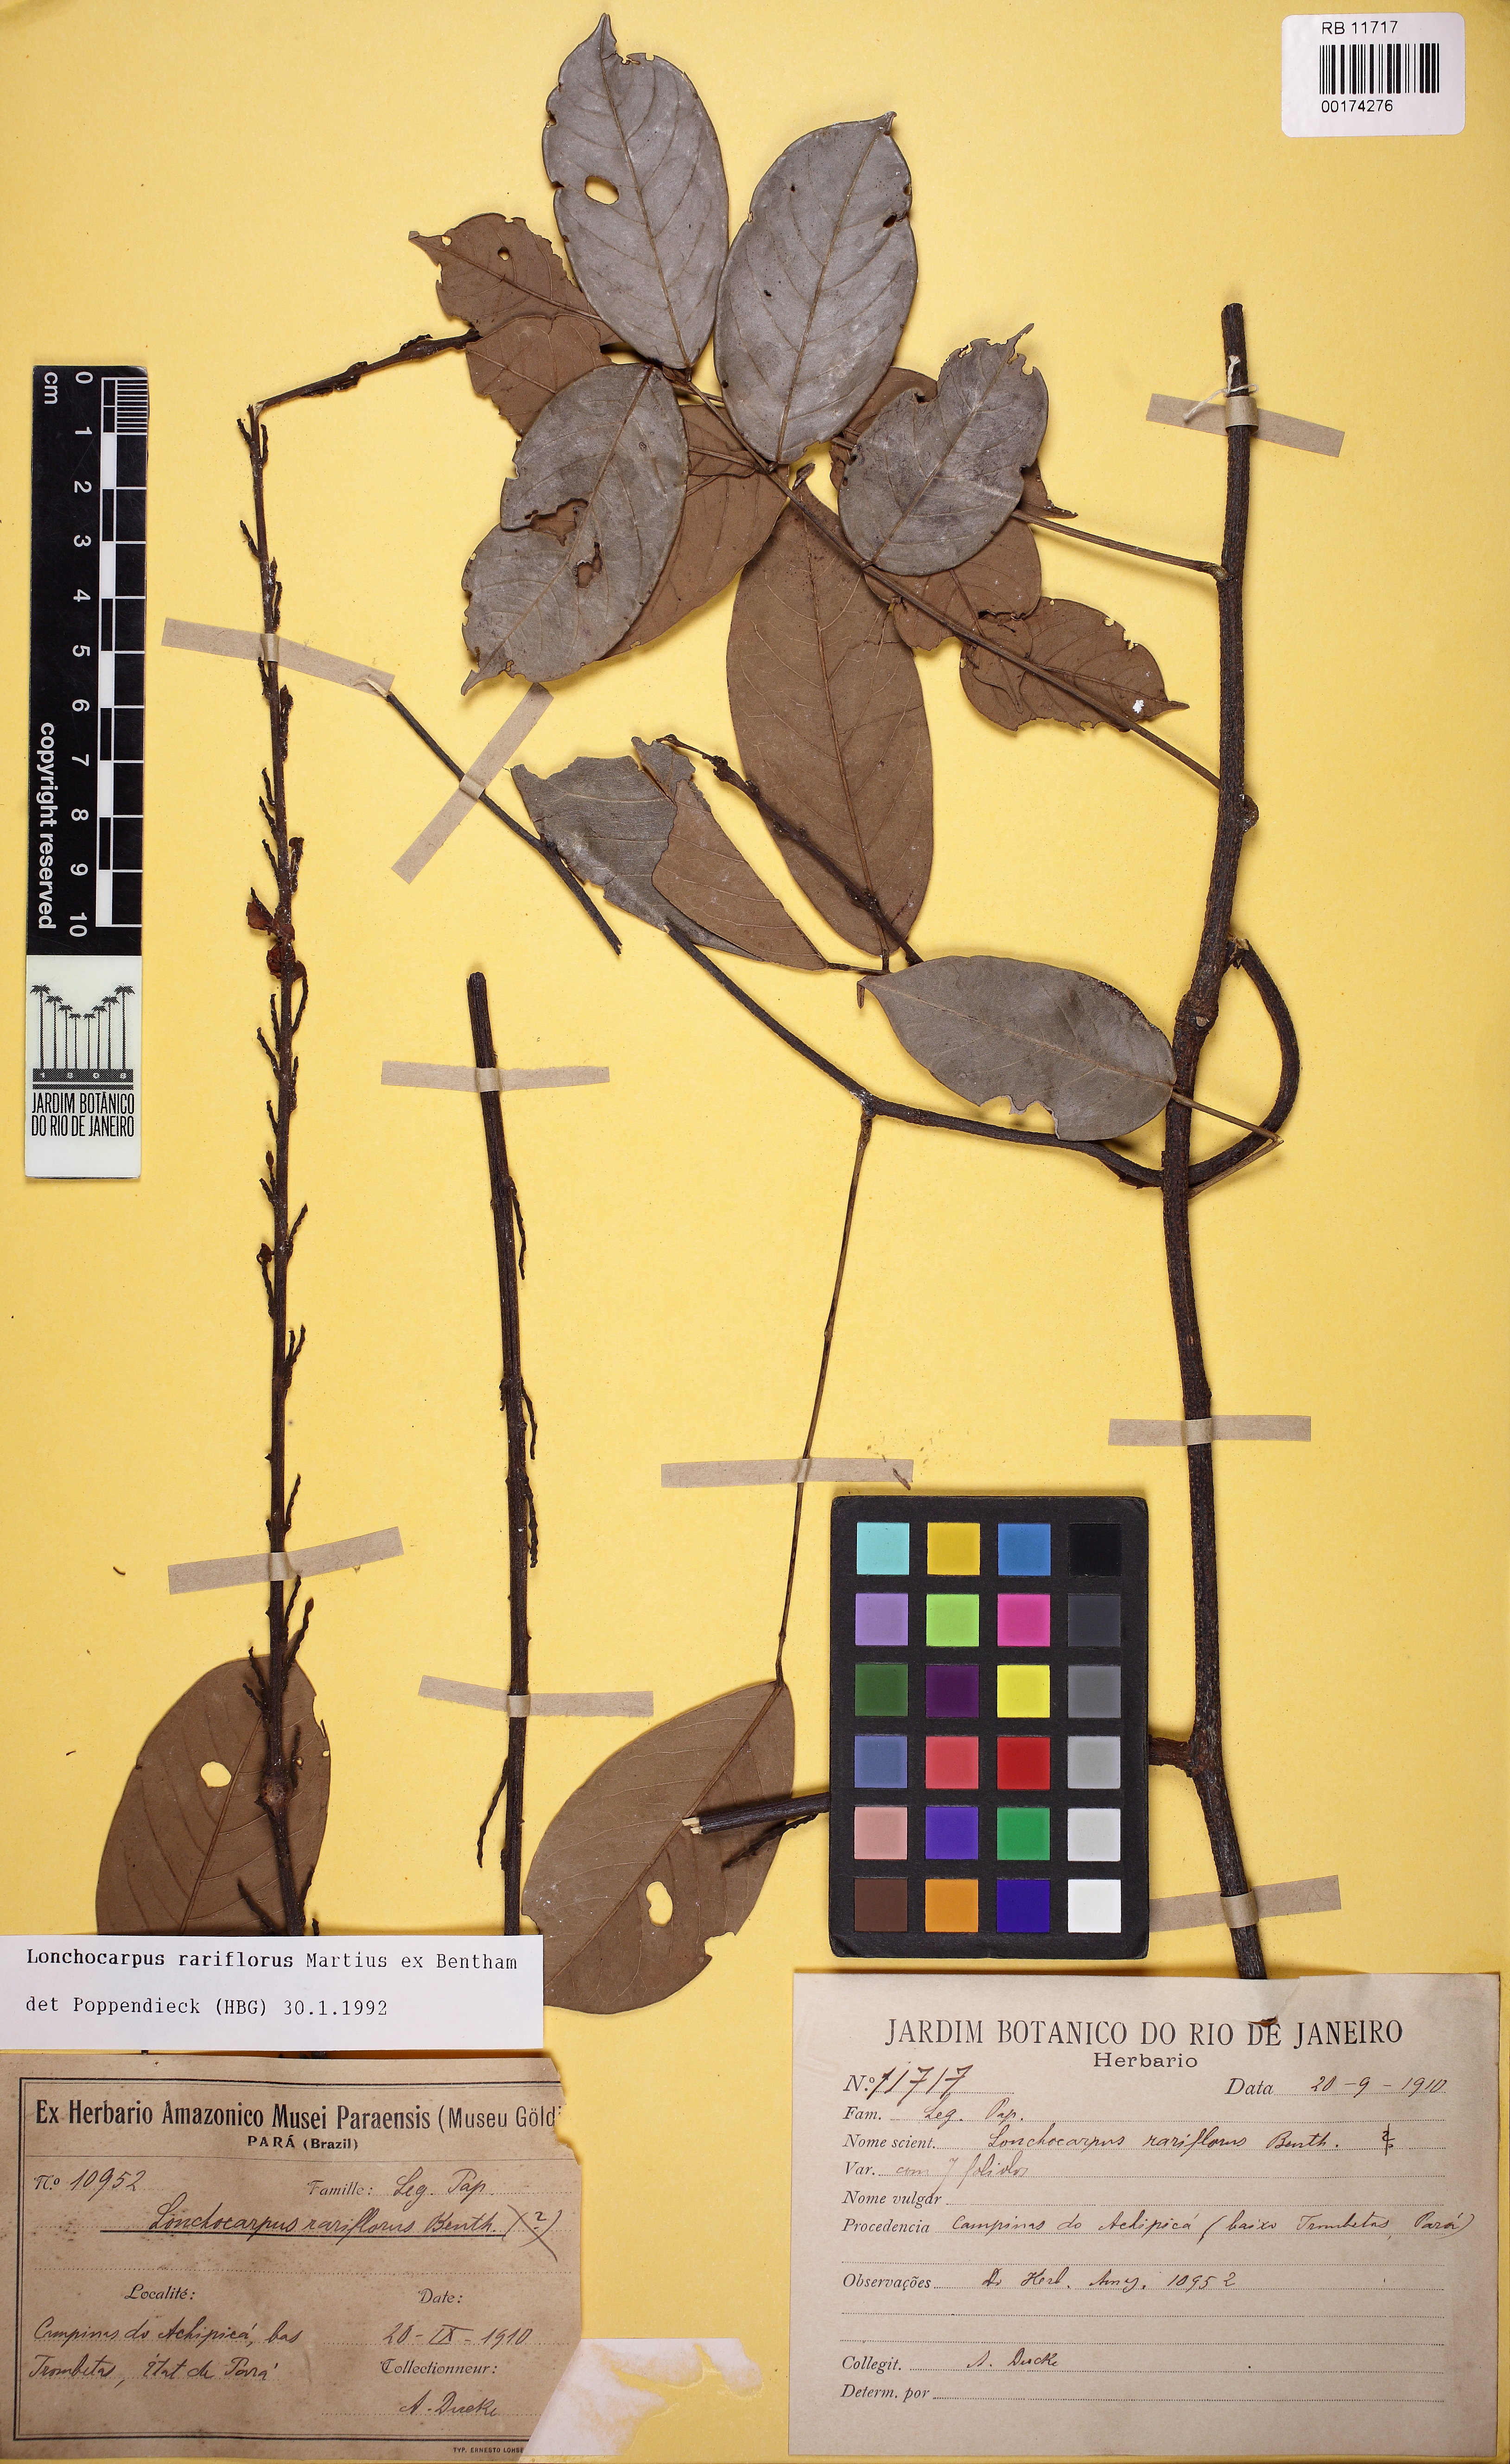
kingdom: Plantae
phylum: Tracheophyta
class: Magnoliopsida
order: Fabales
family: Fabaceae
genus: Deguelia
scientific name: Deguelia rariflora
